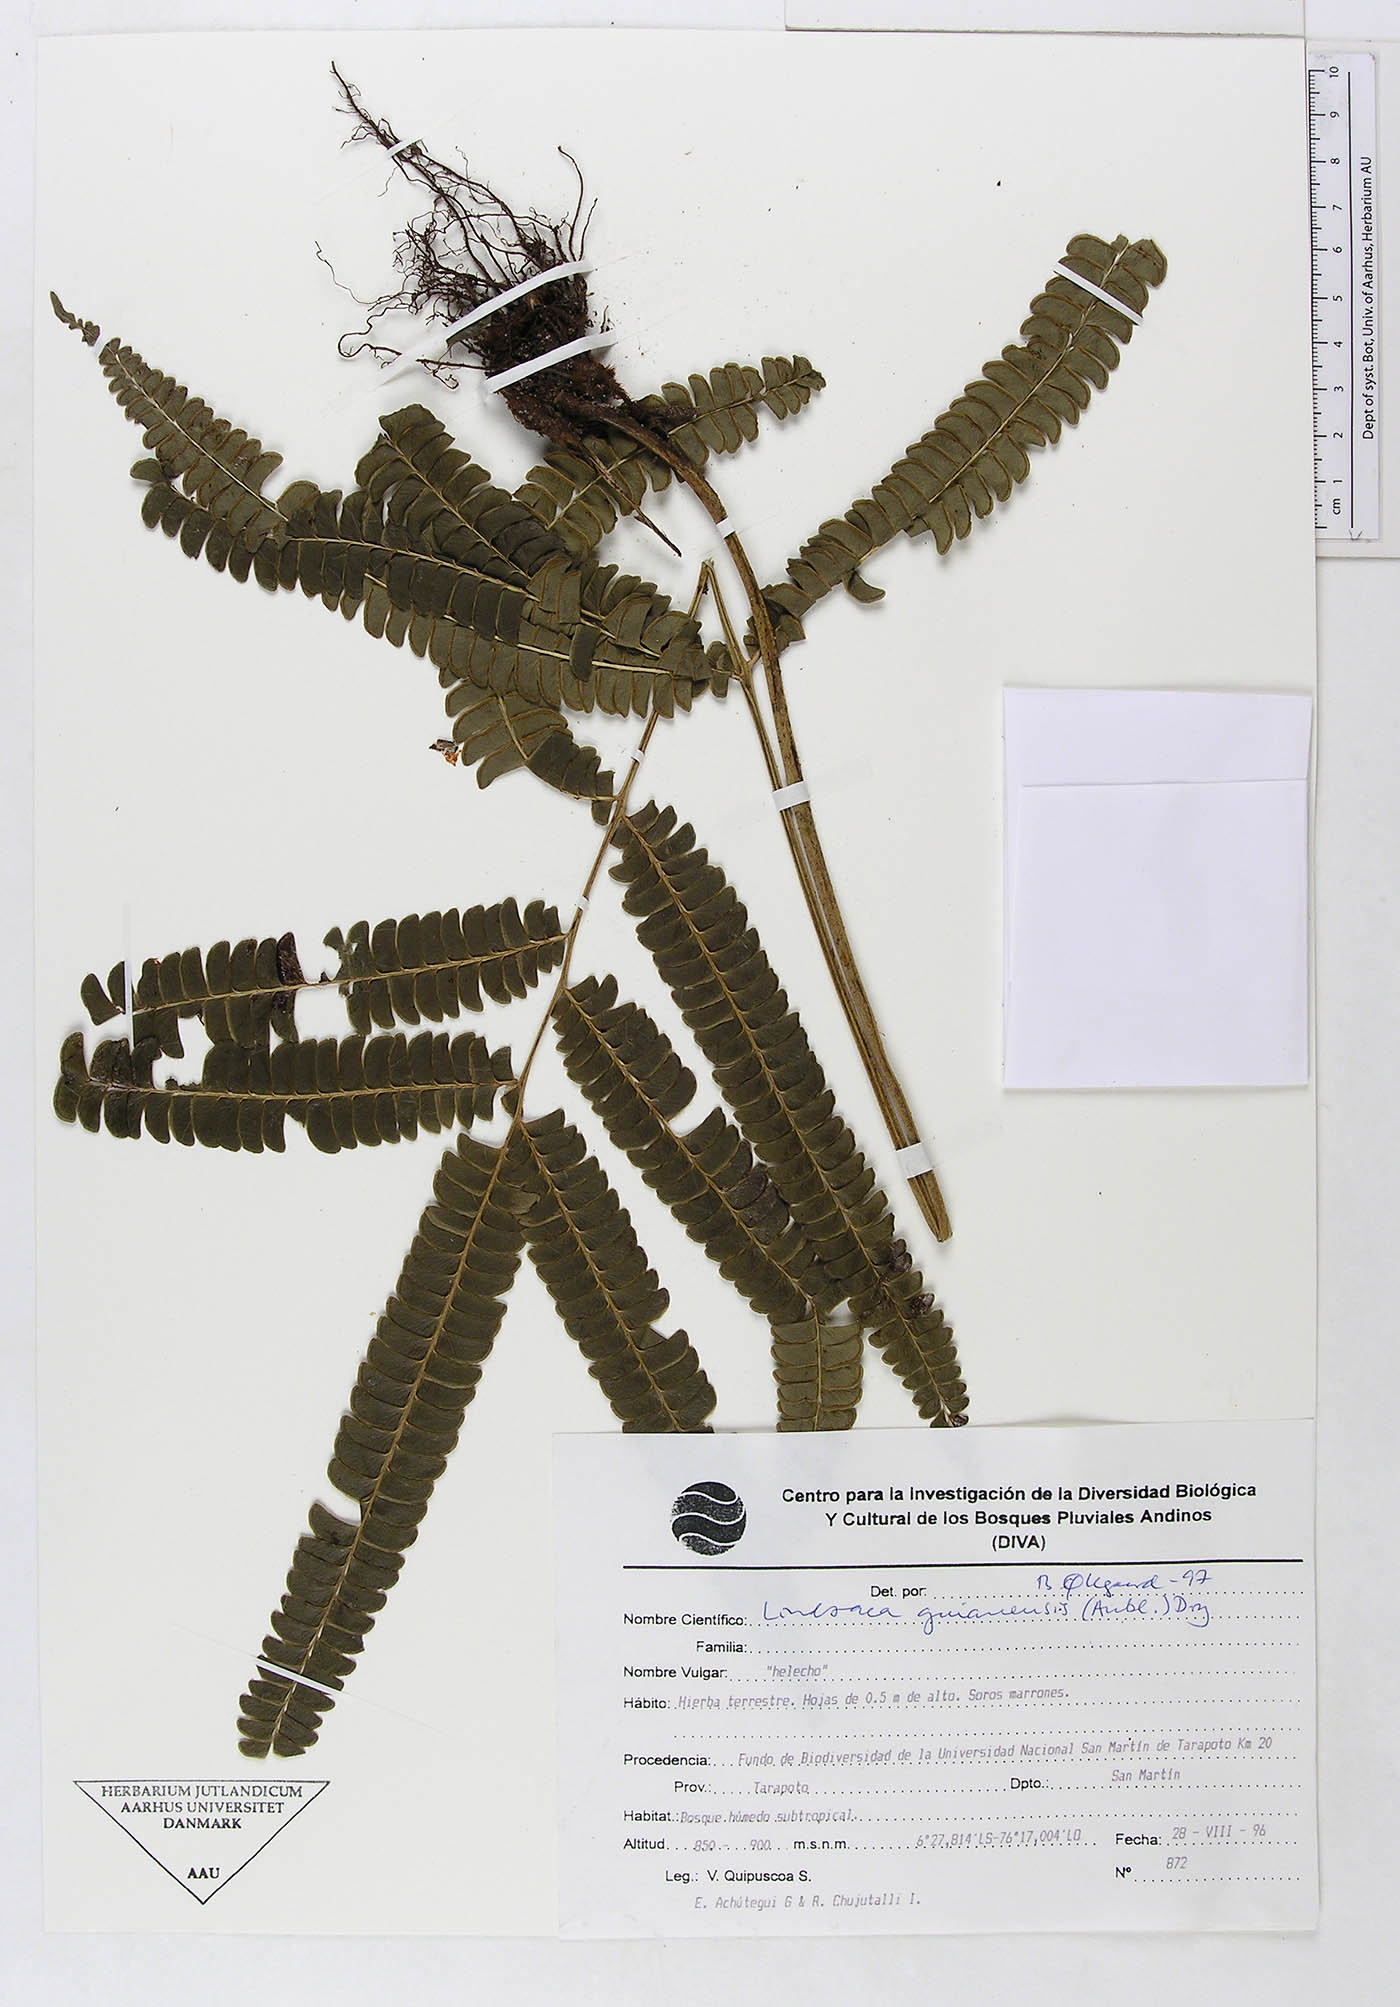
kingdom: Plantae
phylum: Tracheophyta
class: Polypodiopsida
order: Polypodiales
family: Lindsaeaceae
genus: Lindsaea
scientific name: Lindsaea guianensis
